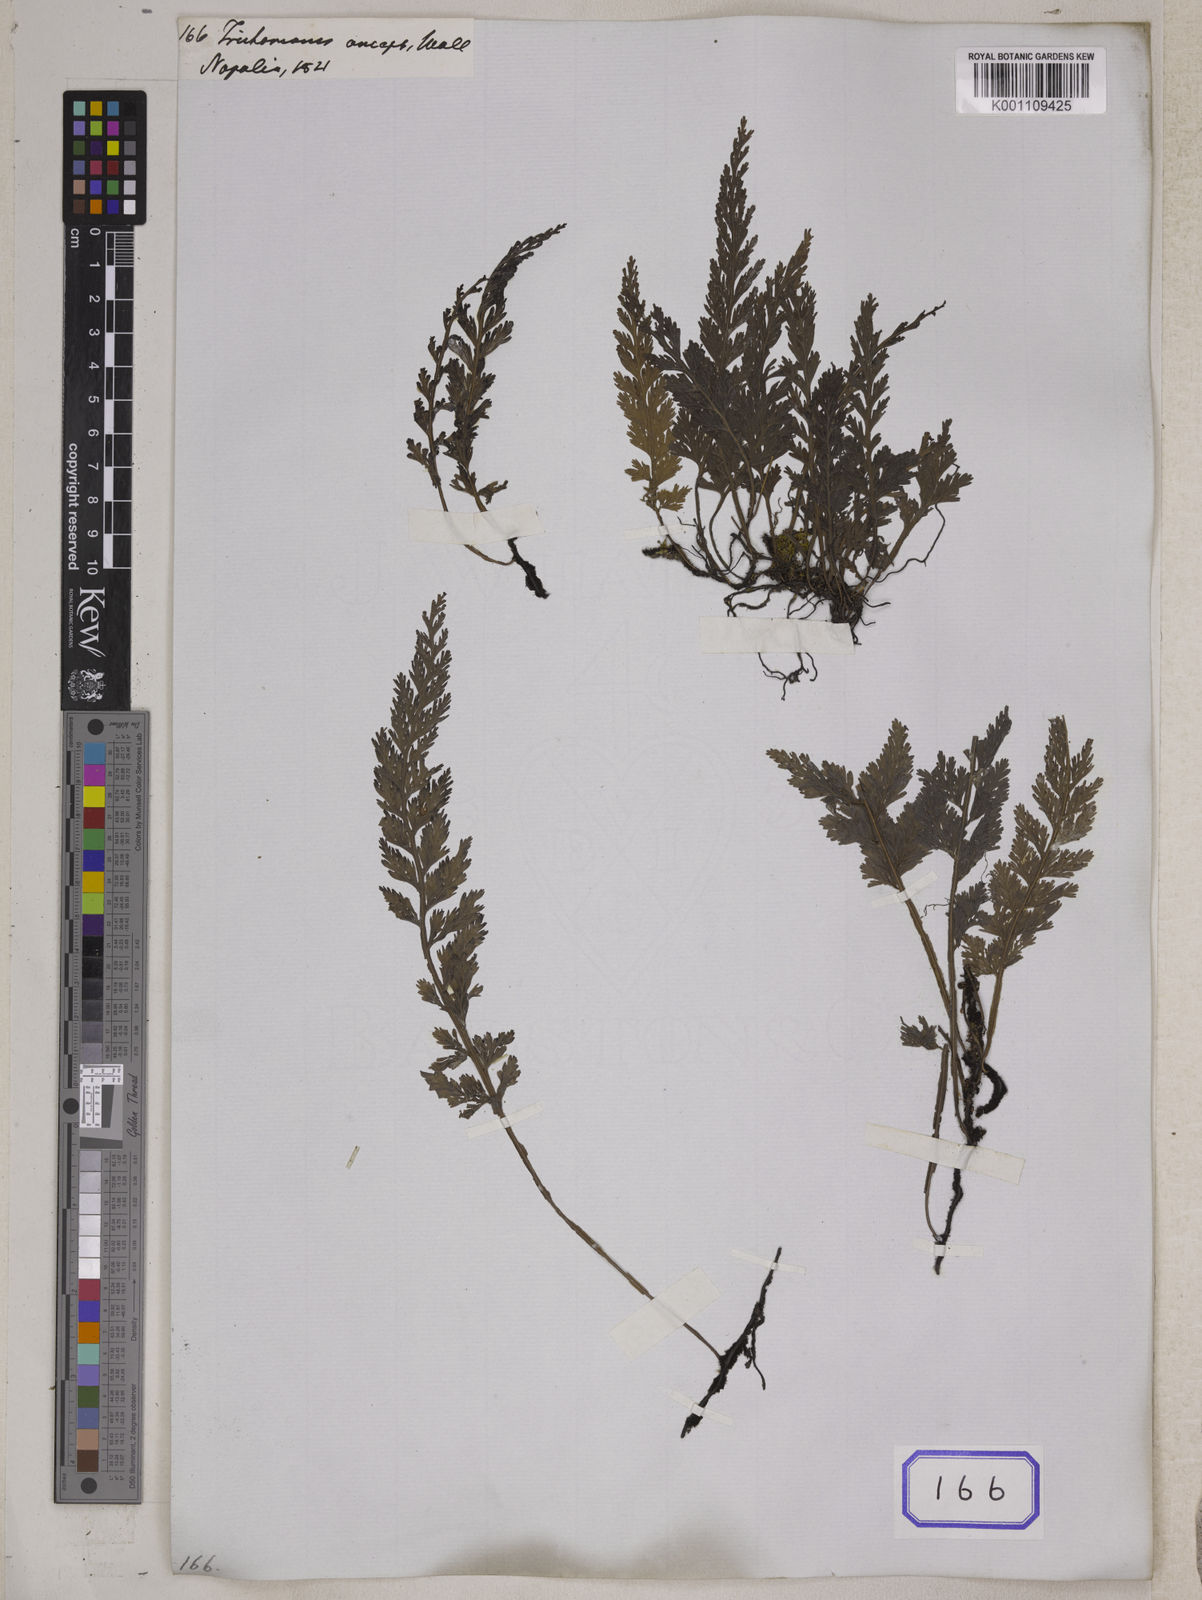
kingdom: Plantae
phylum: Tracheophyta
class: Polypodiopsida
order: Hymenophyllales
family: Hymenophyllaceae
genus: Vandenboschia
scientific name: Vandenboschia birmanica
